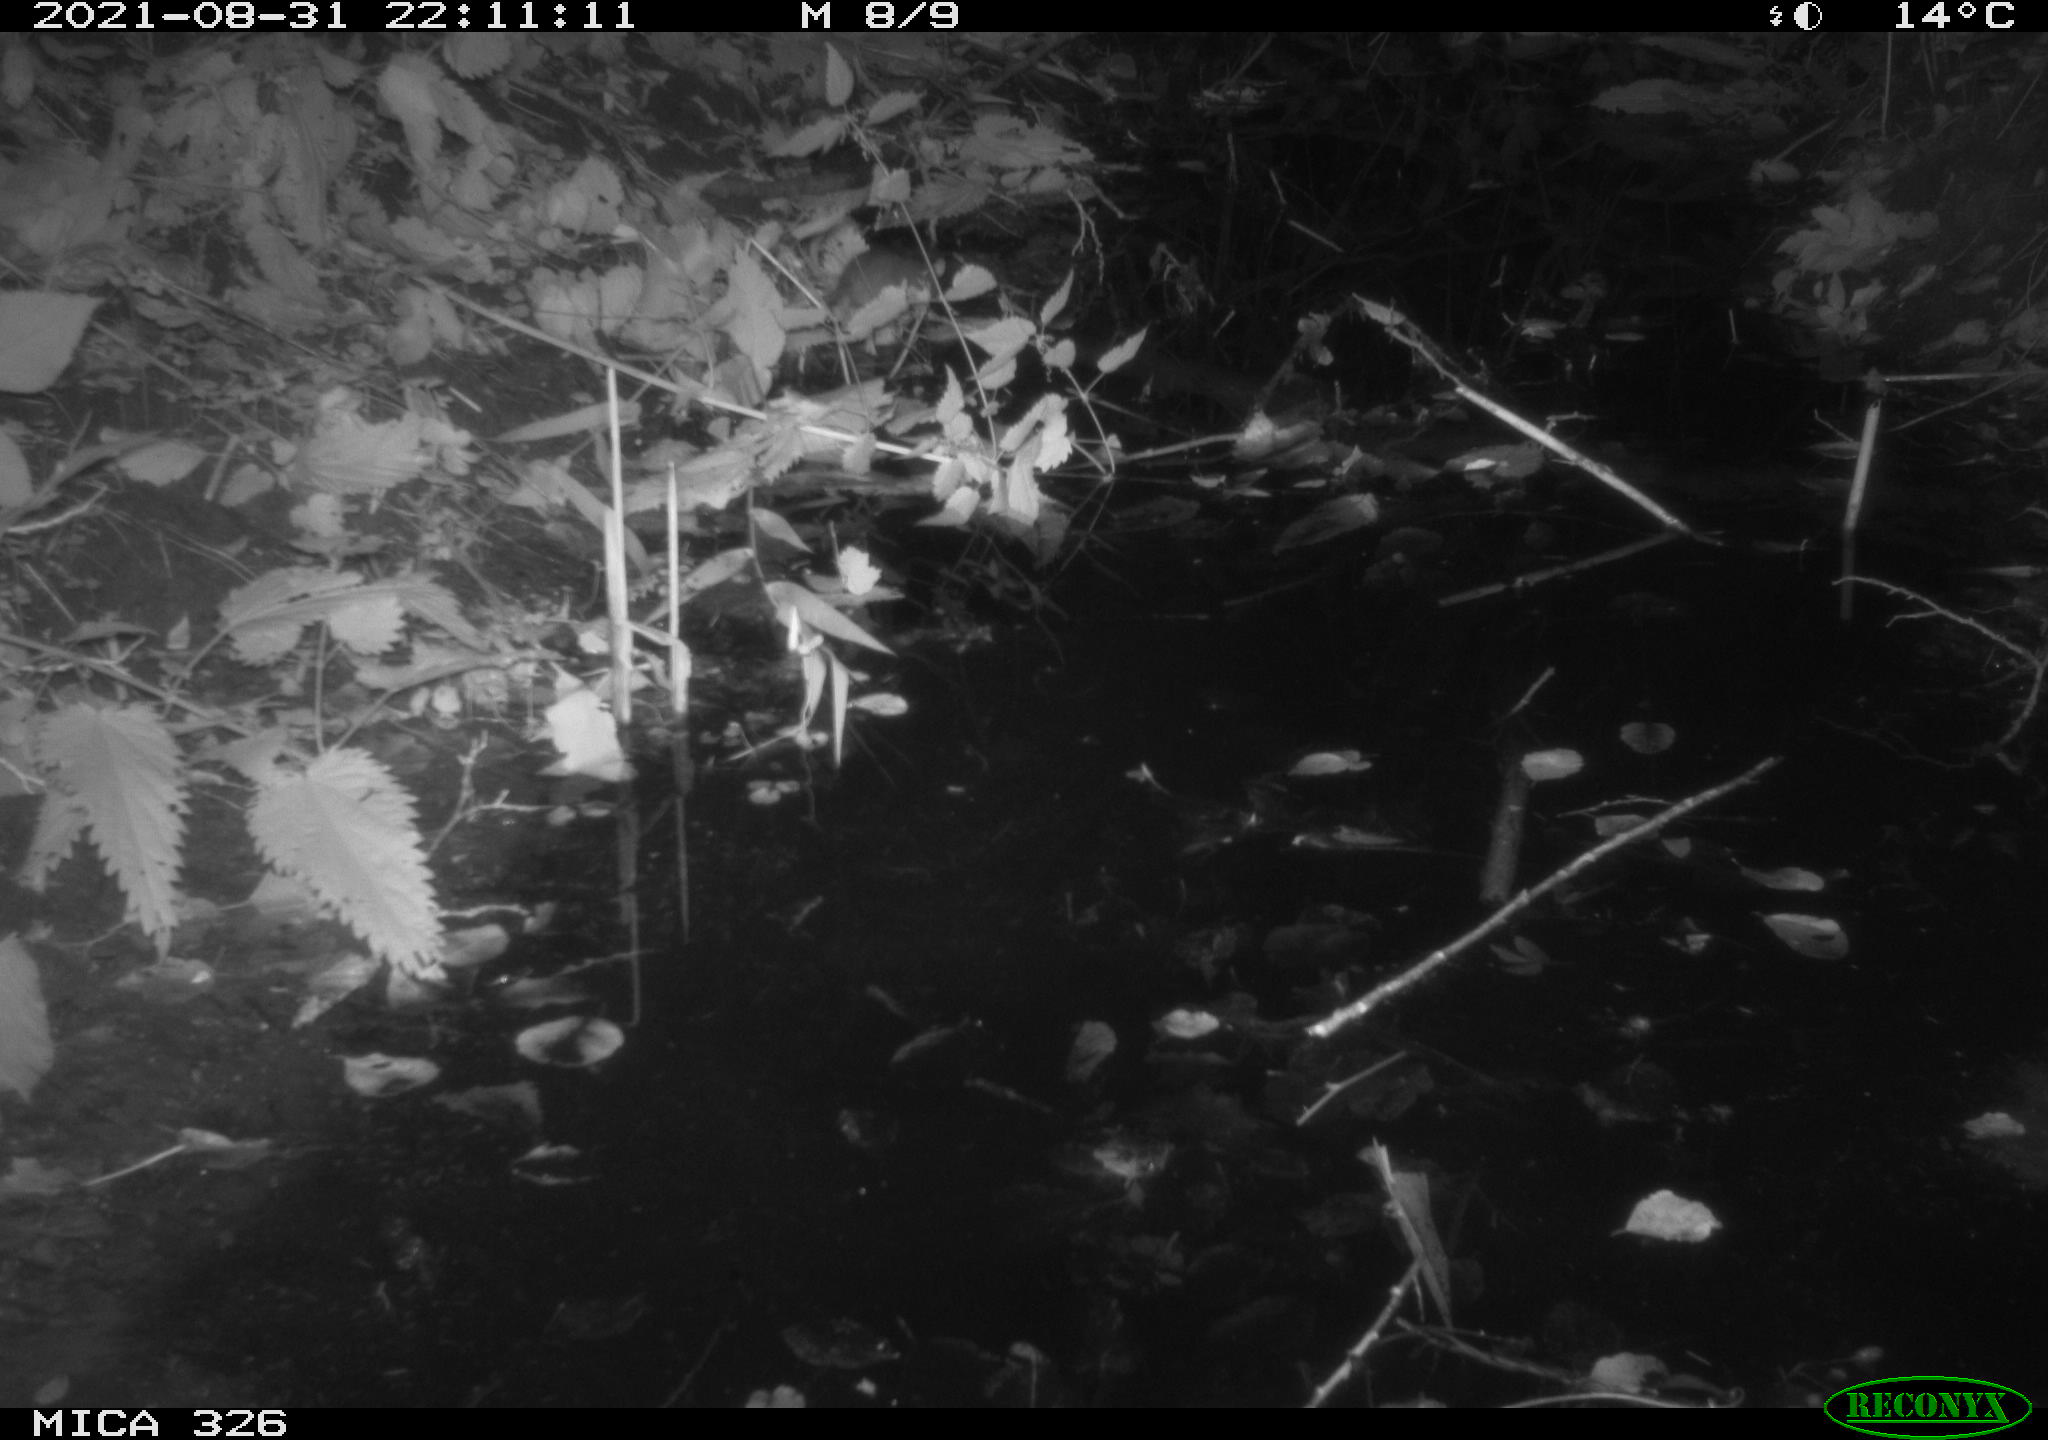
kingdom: Animalia
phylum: Chordata
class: Mammalia
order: Rodentia
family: Muridae
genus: Rattus
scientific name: Rattus norvegicus
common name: Brown rat
